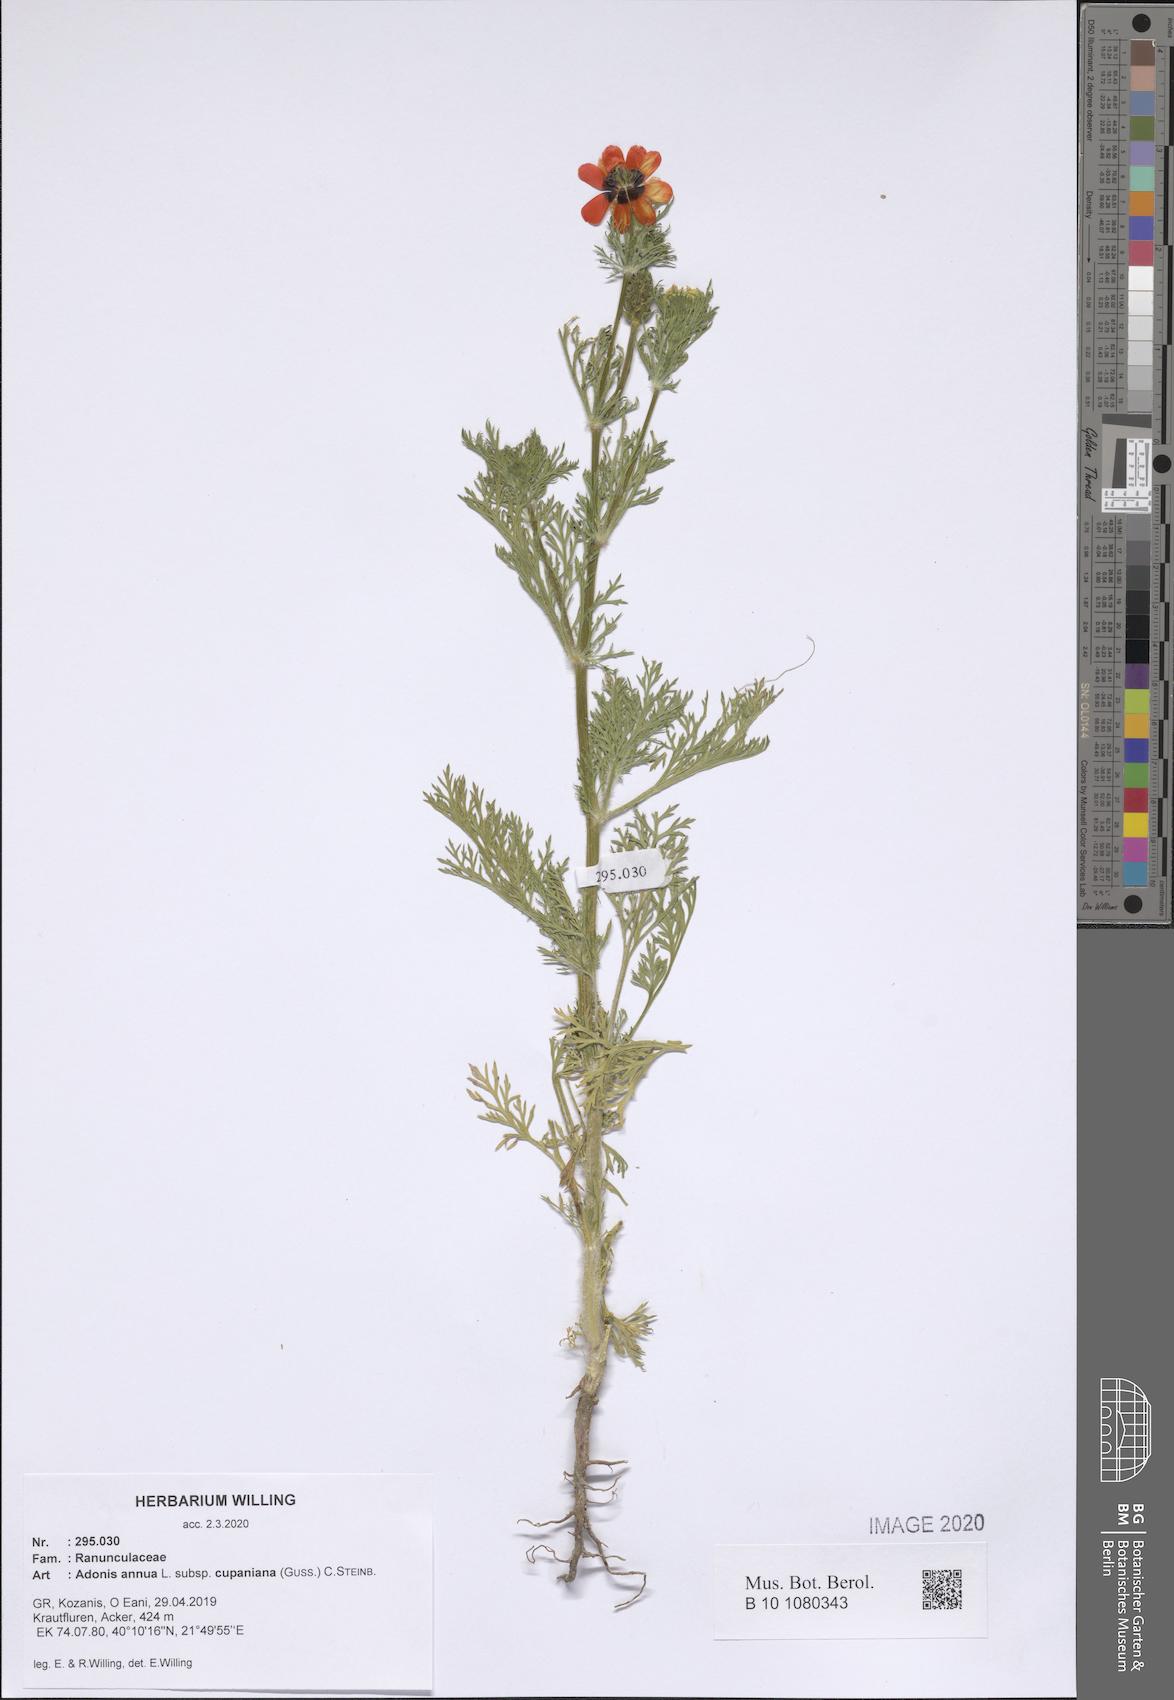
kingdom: Plantae
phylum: Tracheophyta
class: Magnoliopsida
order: Ranunculales
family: Ranunculaceae
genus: Adonis
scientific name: Adonis annua
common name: Pheasant's-eye
